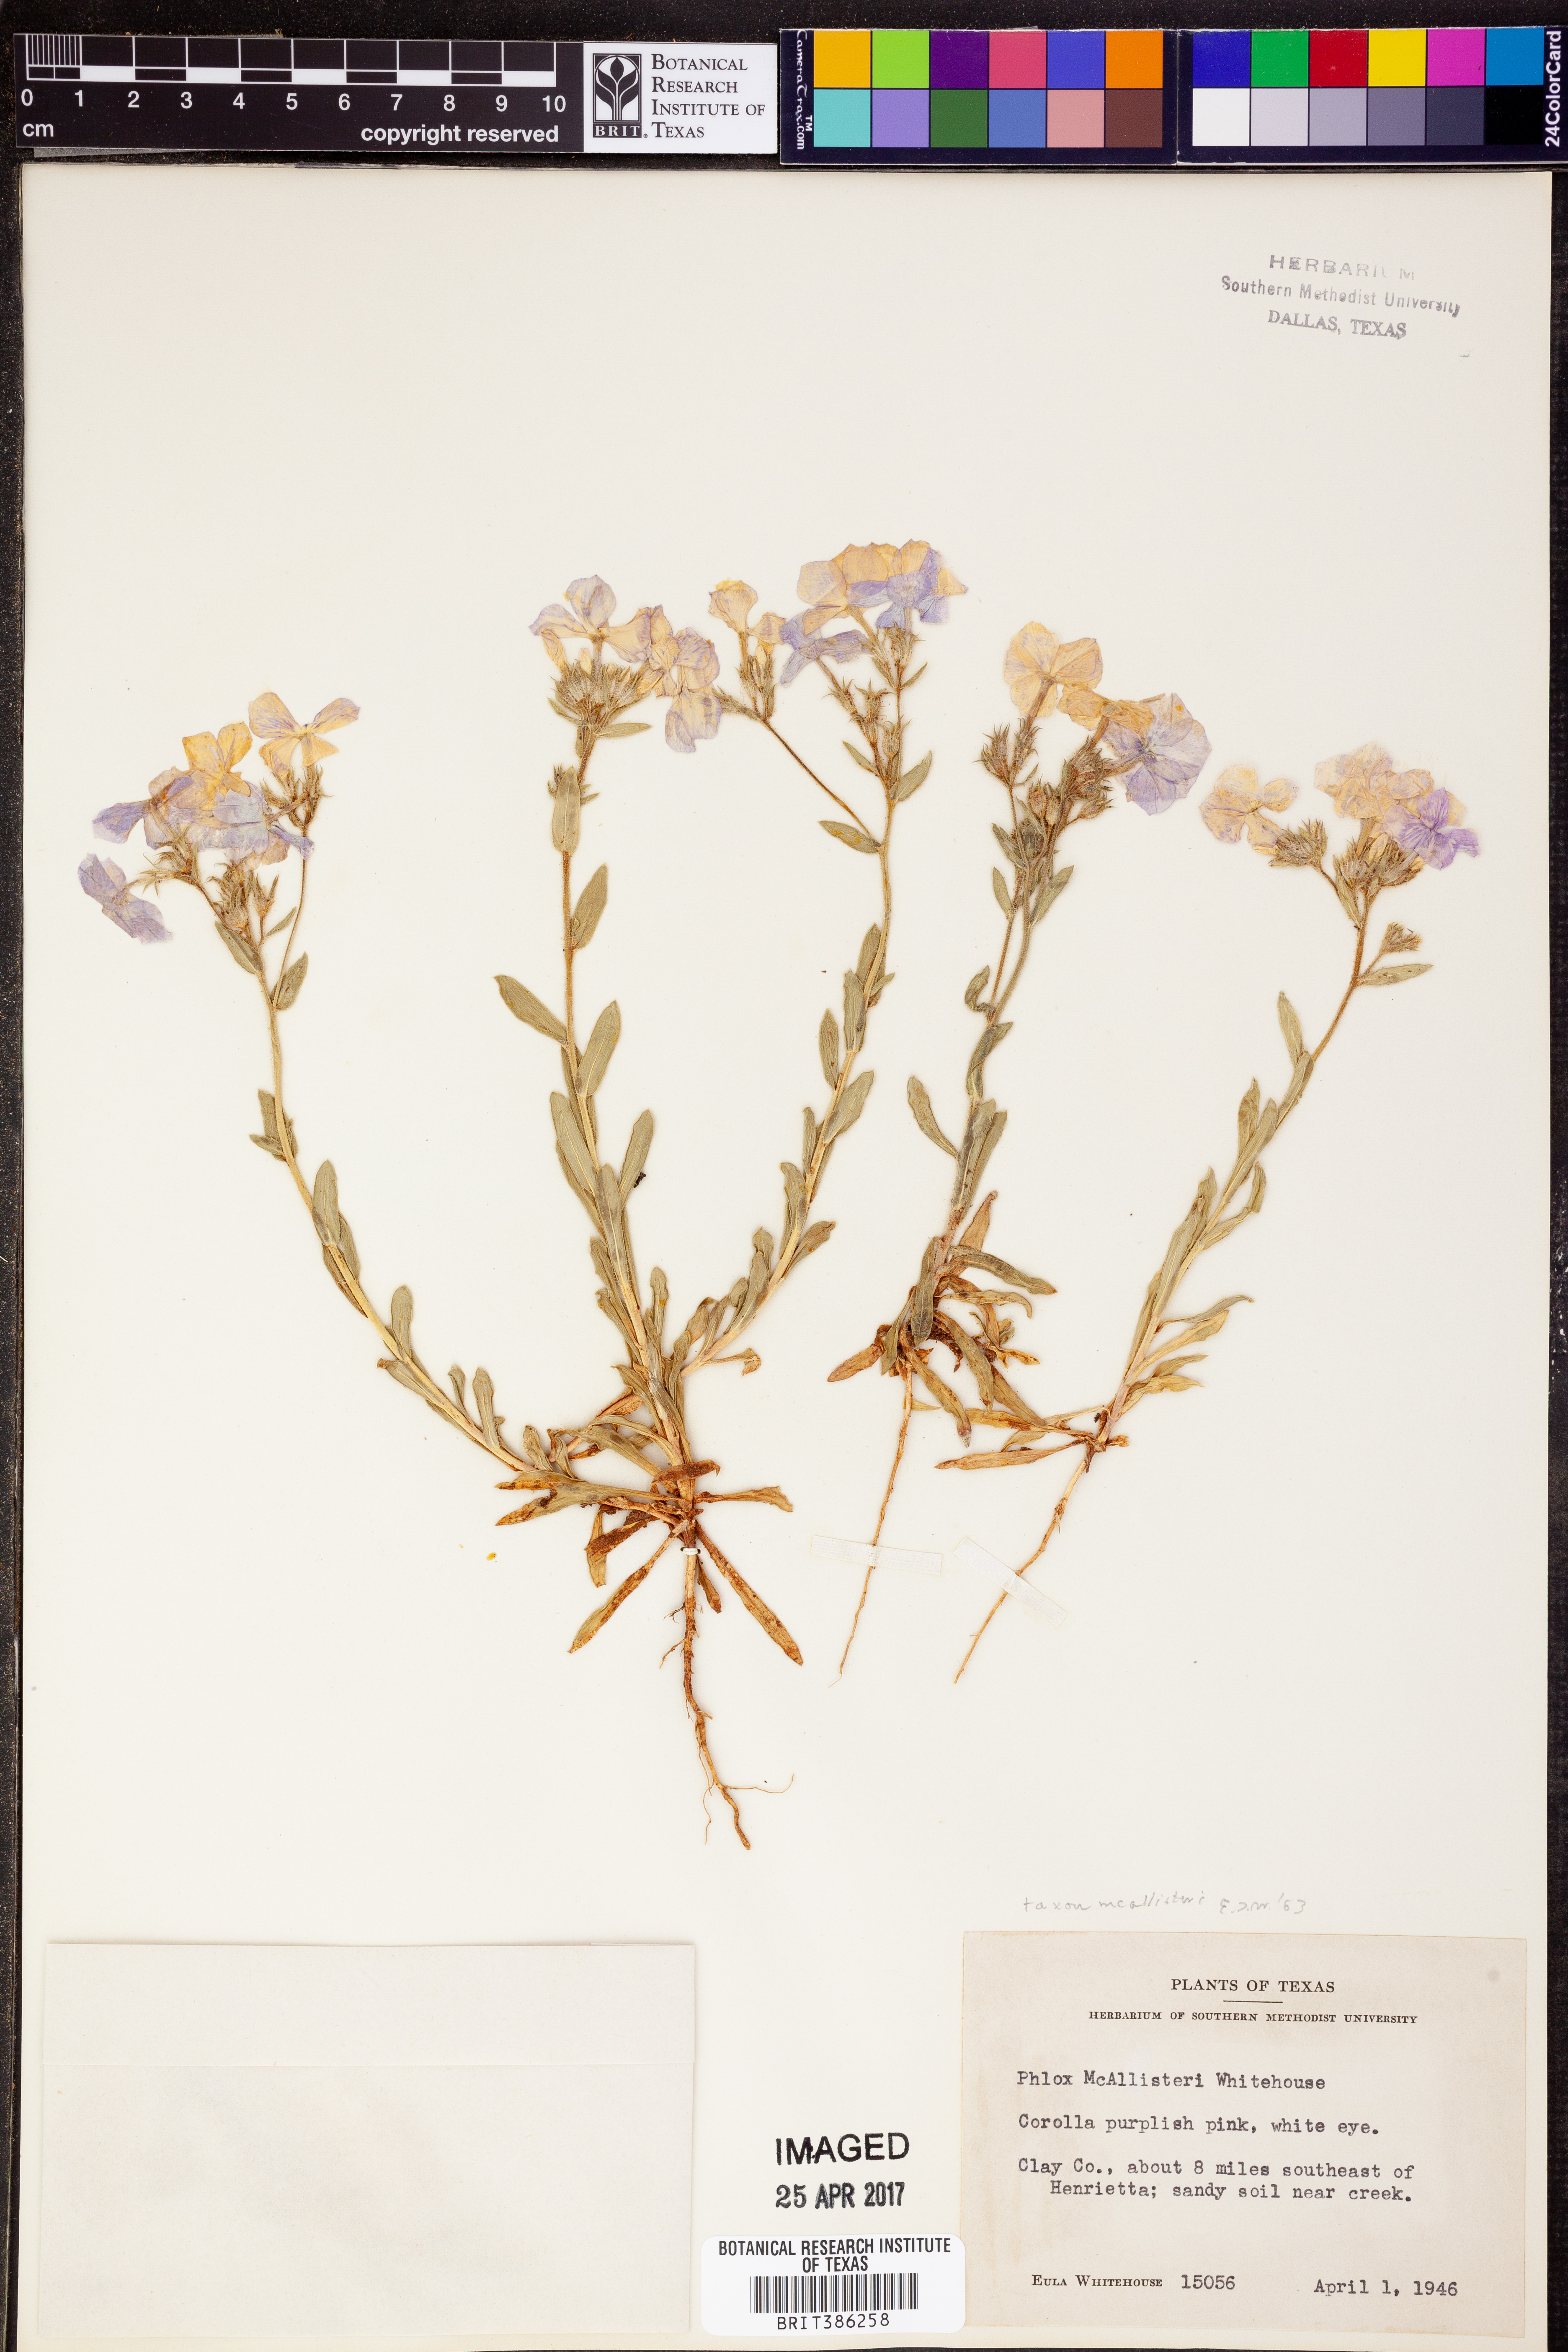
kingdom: Plantae
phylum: Tracheophyta
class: Magnoliopsida
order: Ericales
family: Polemoniaceae
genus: Phlox
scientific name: Phlox drummondii
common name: Drummond's phlox
